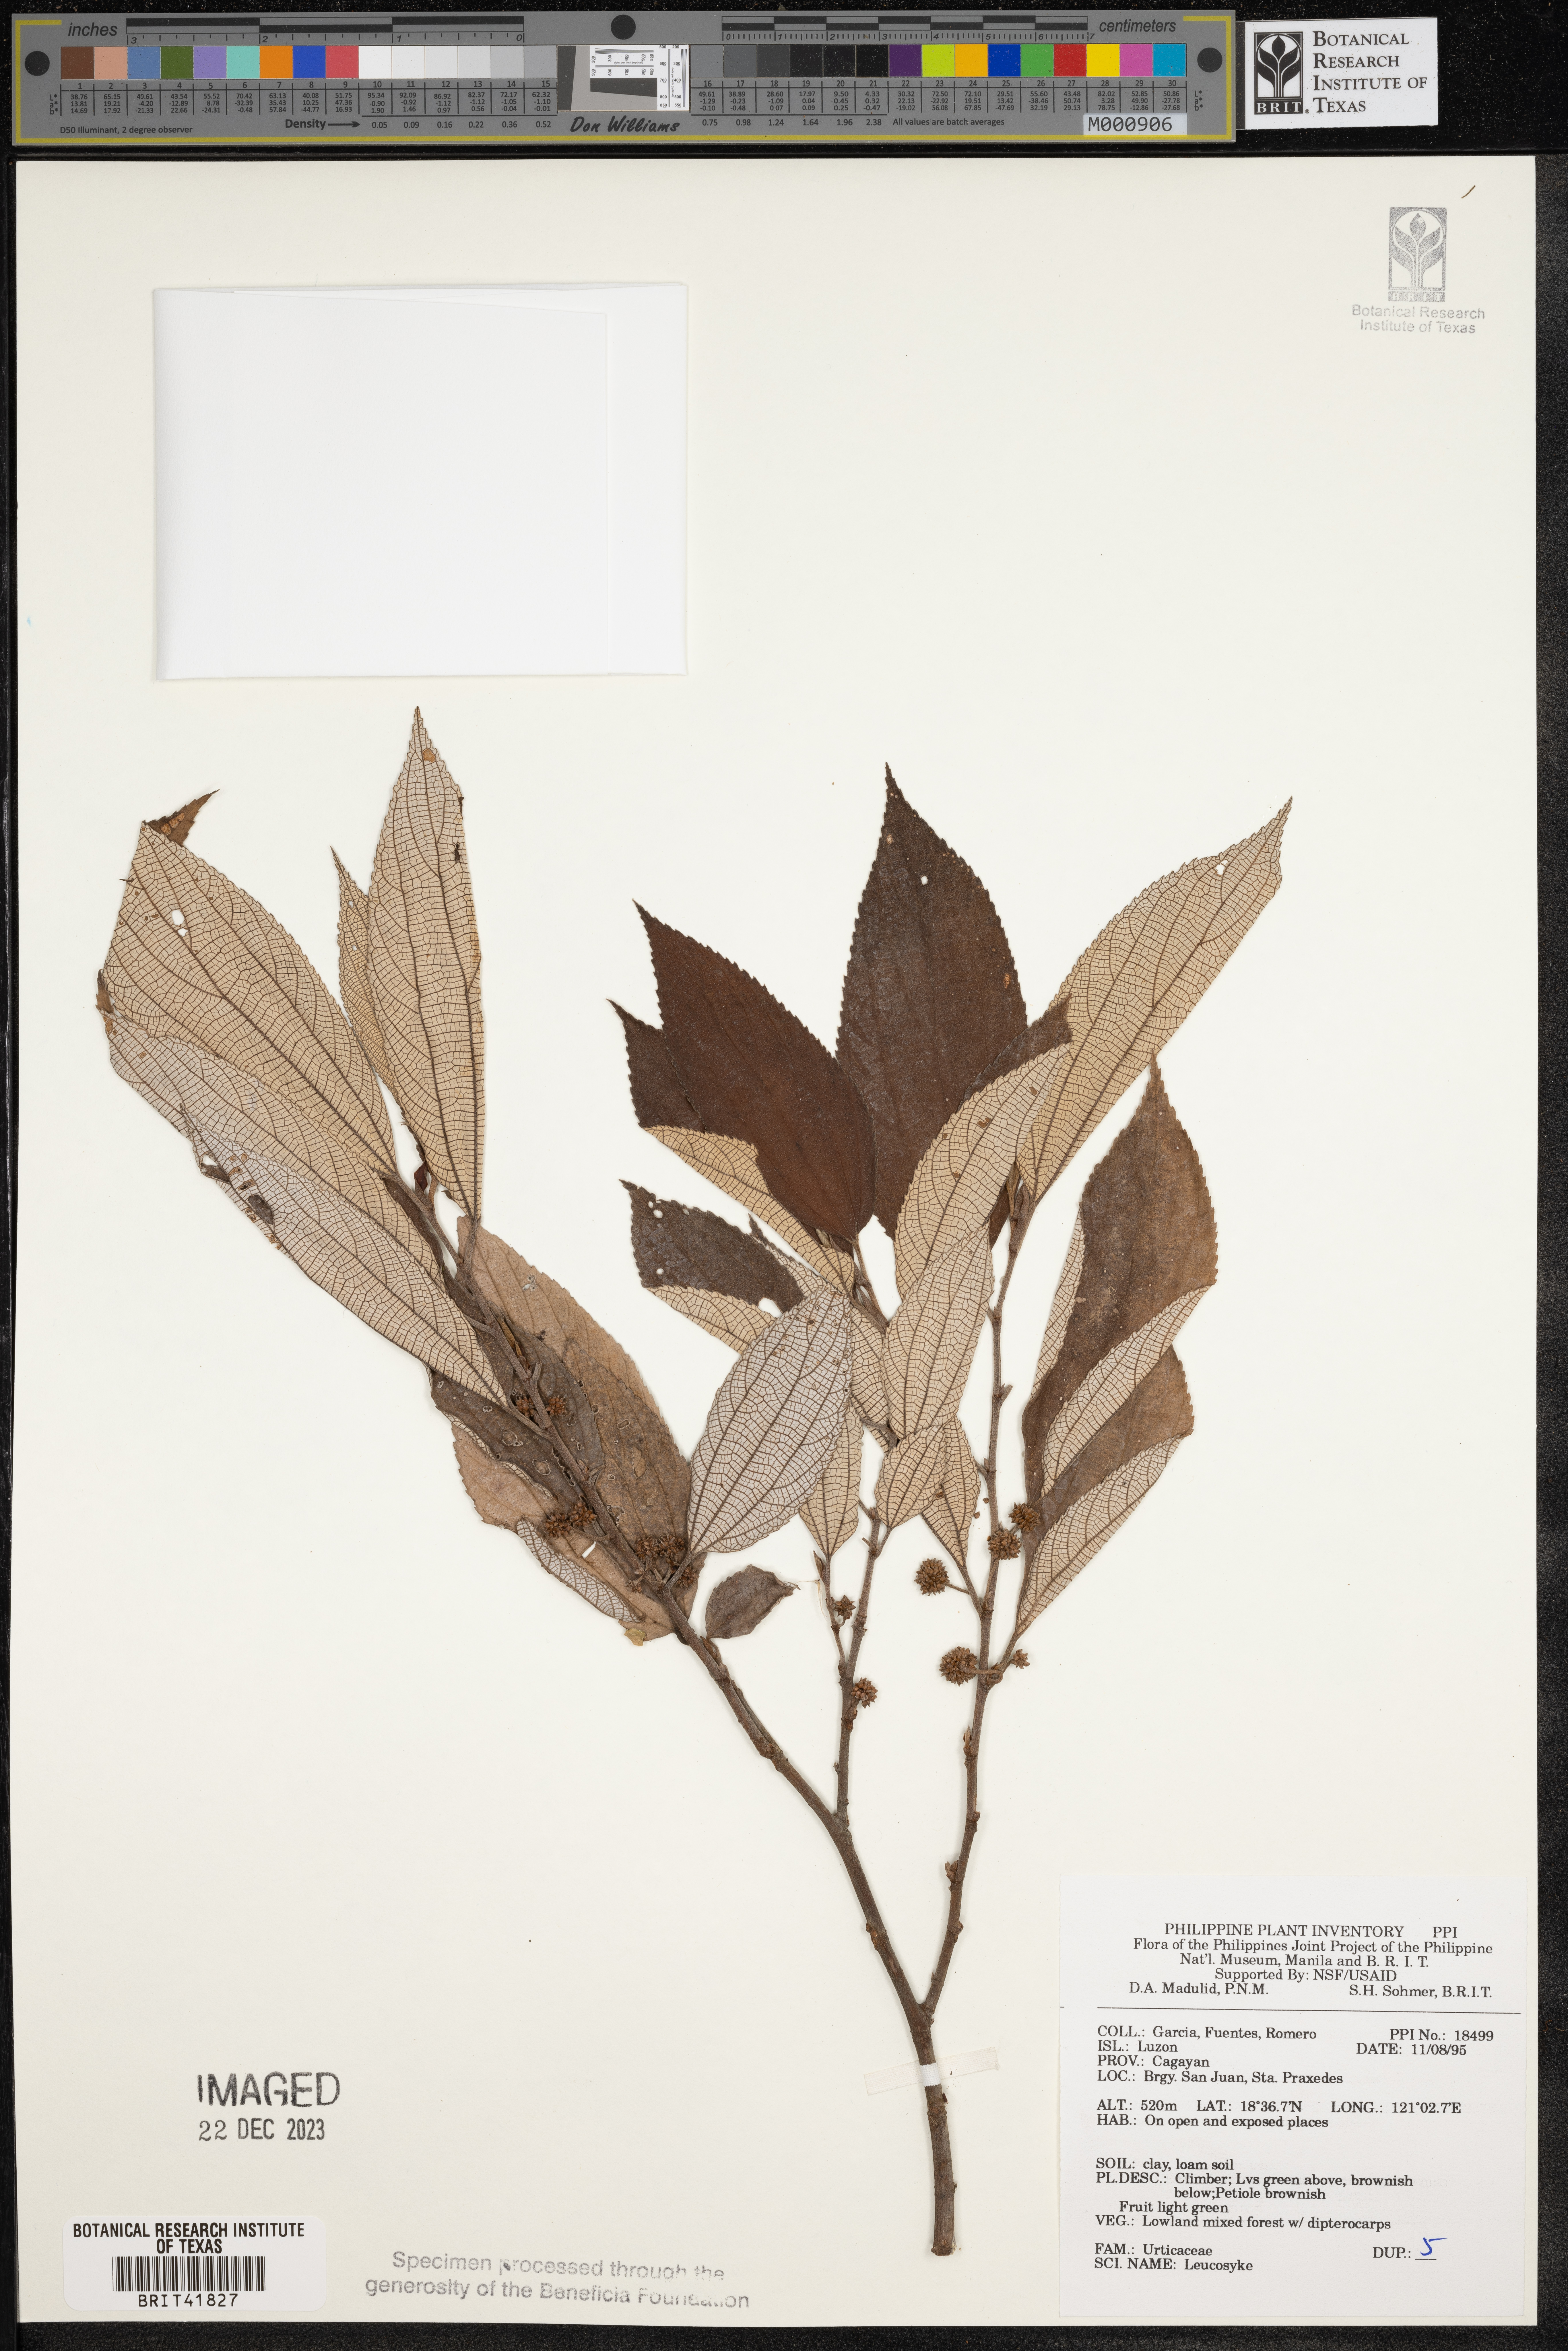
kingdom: Plantae
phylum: Tracheophyta
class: Magnoliopsida
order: Rosales
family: Urticaceae
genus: Leucosyke
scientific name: Leucosyke
